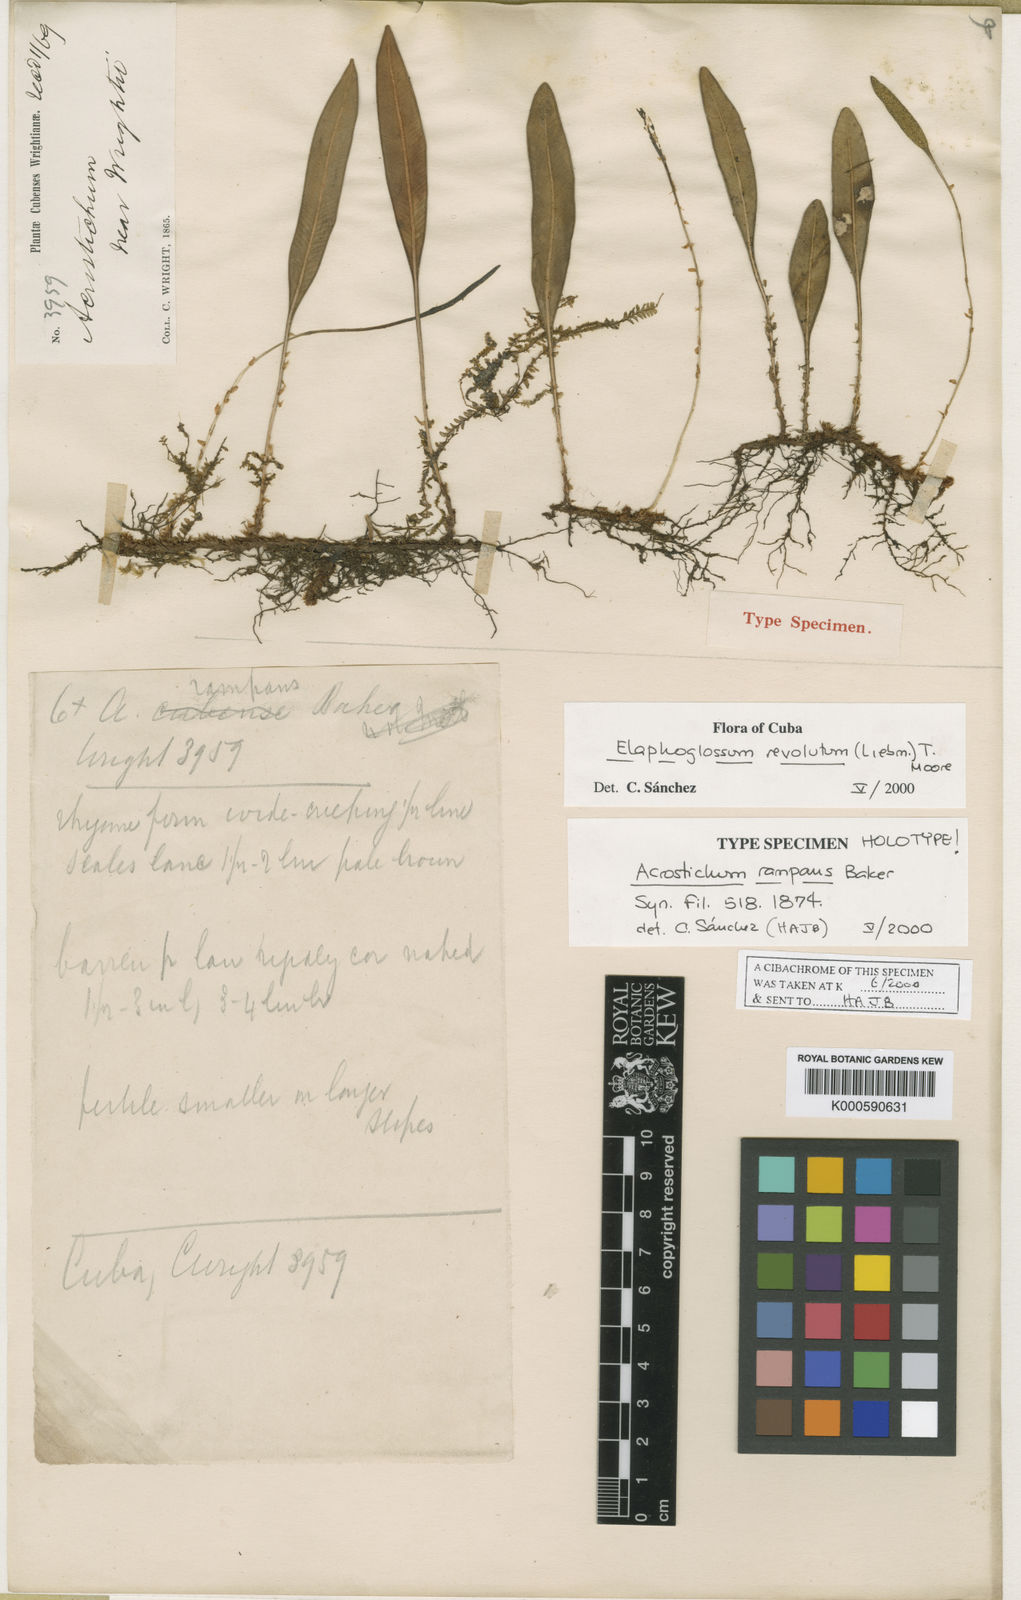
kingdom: Plantae
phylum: Tracheophyta
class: Polypodiopsida
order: Polypodiales
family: Dryopteridaceae
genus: Elaphoglossum
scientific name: Elaphoglossum revolutum
